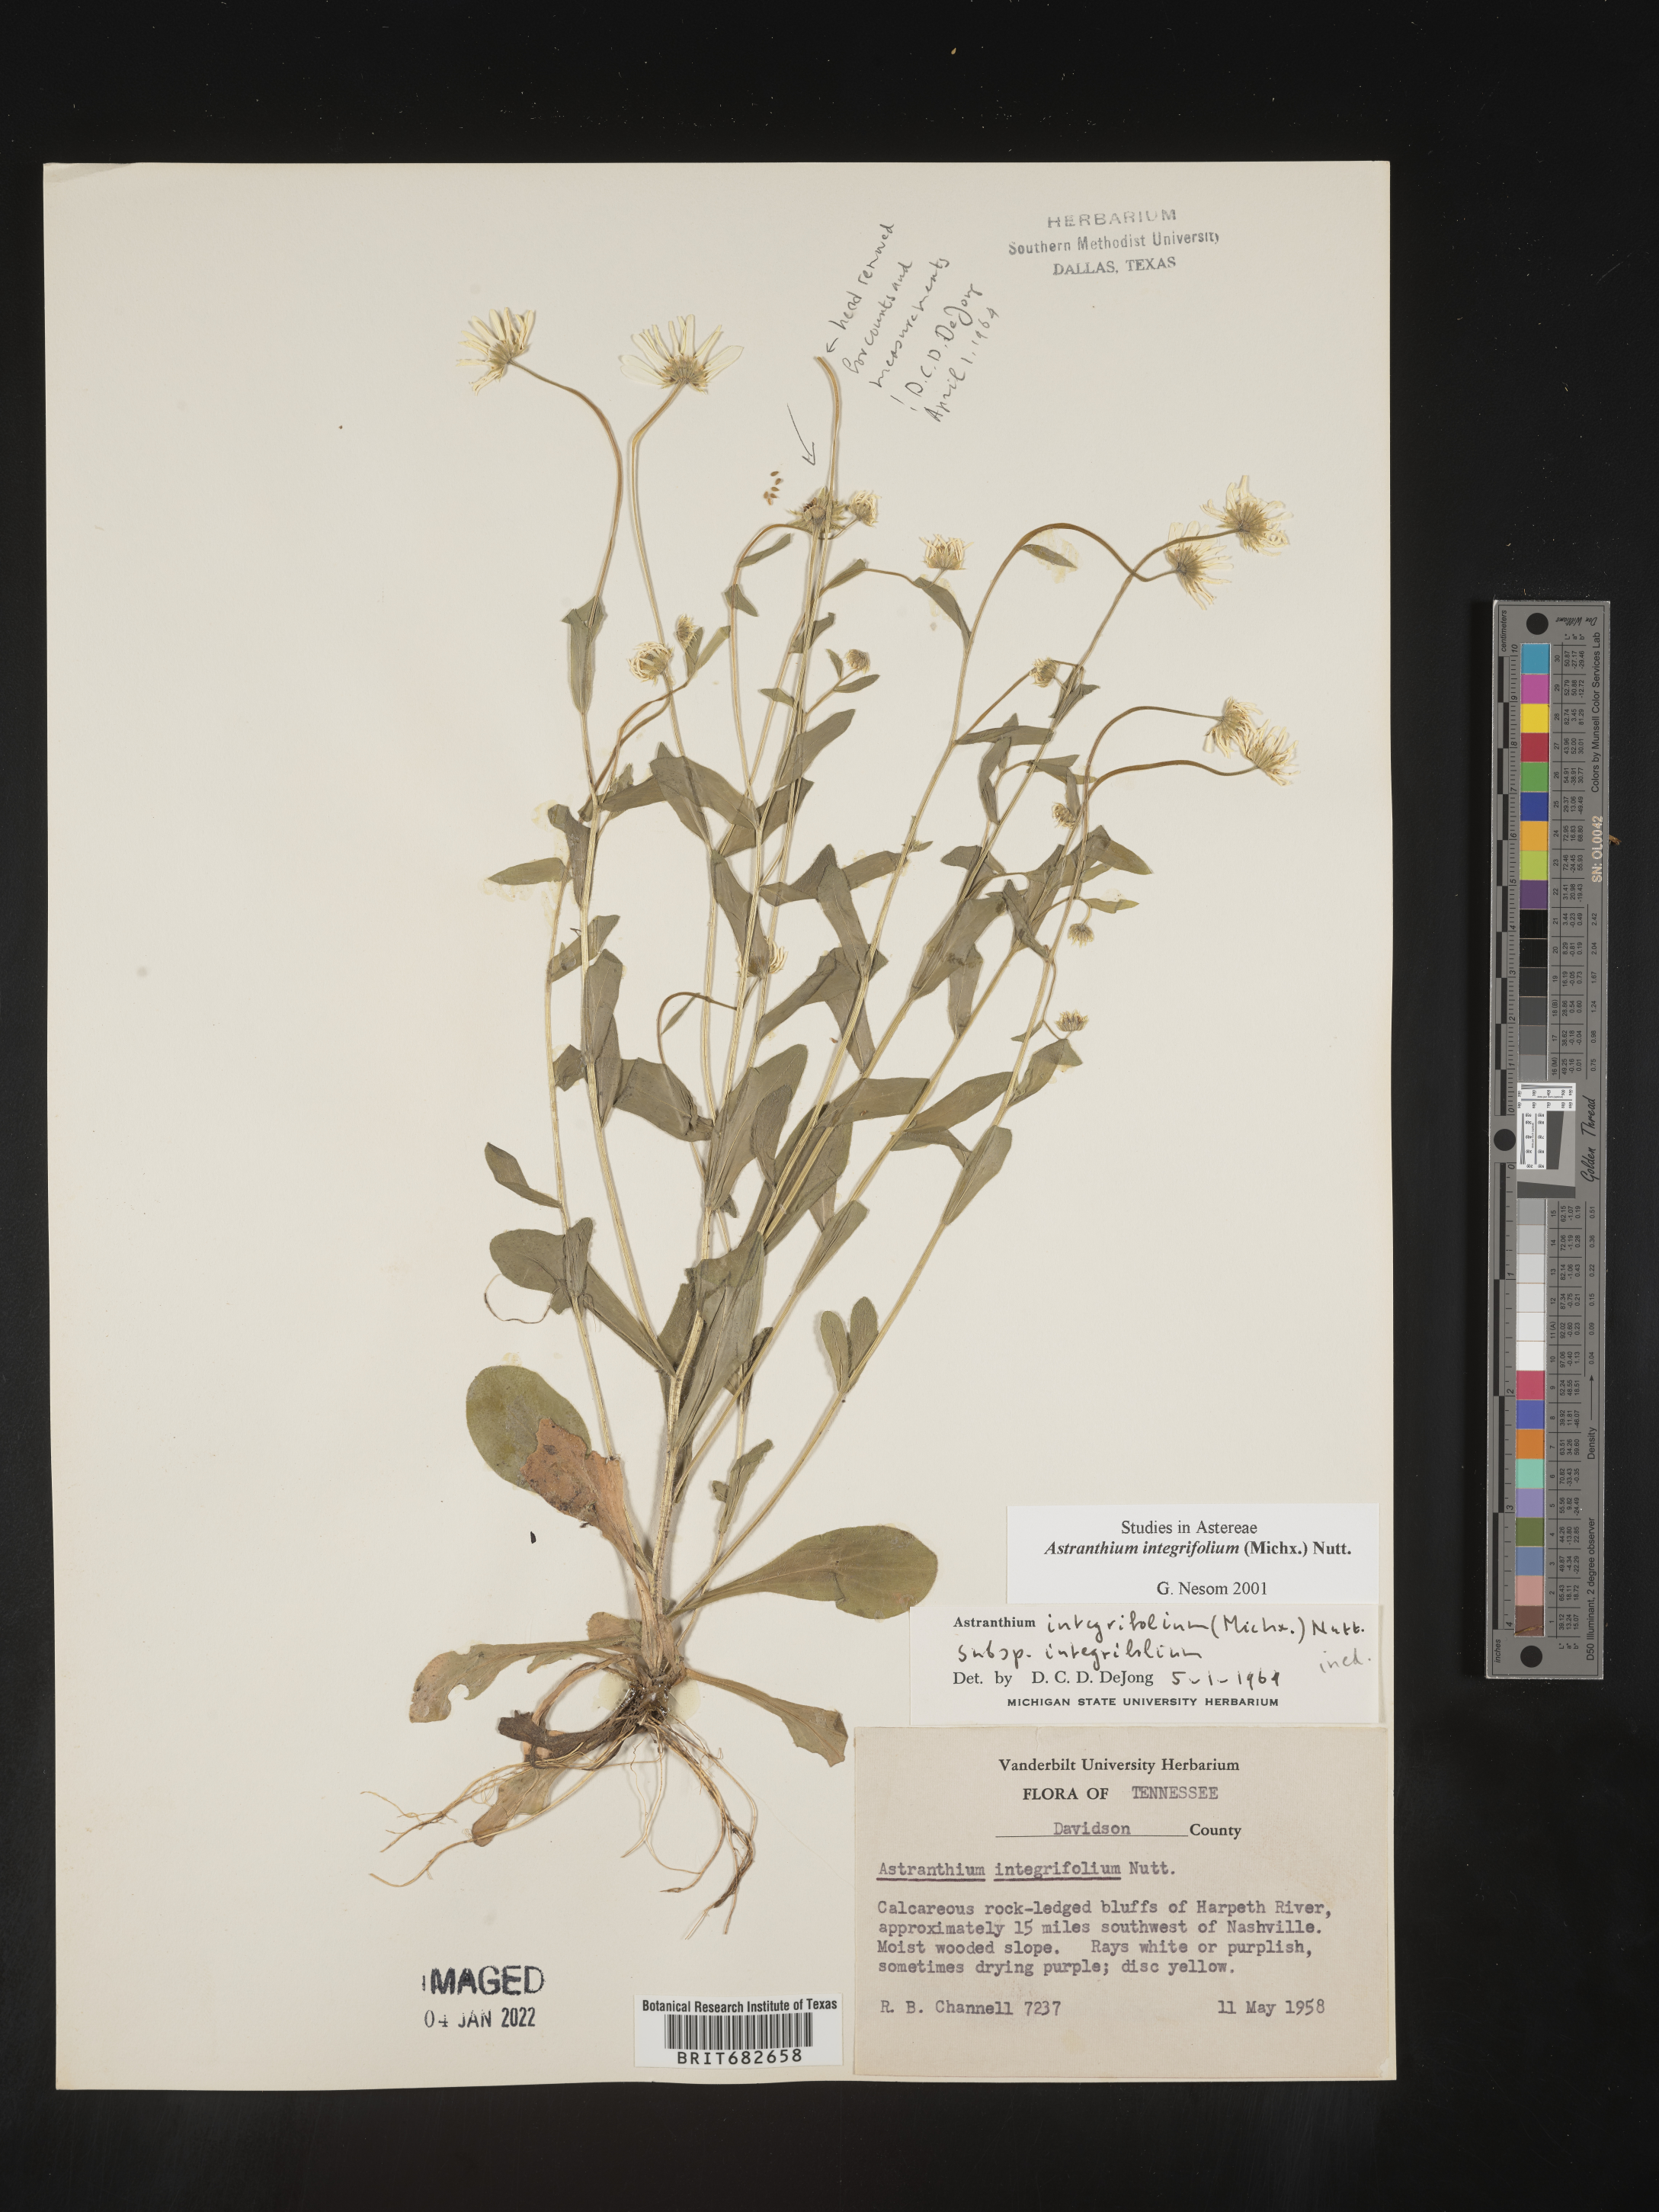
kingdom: Plantae
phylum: Tracheophyta
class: Magnoliopsida
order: Asterales
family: Asteraceae
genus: Astranthium
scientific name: Astranthium
